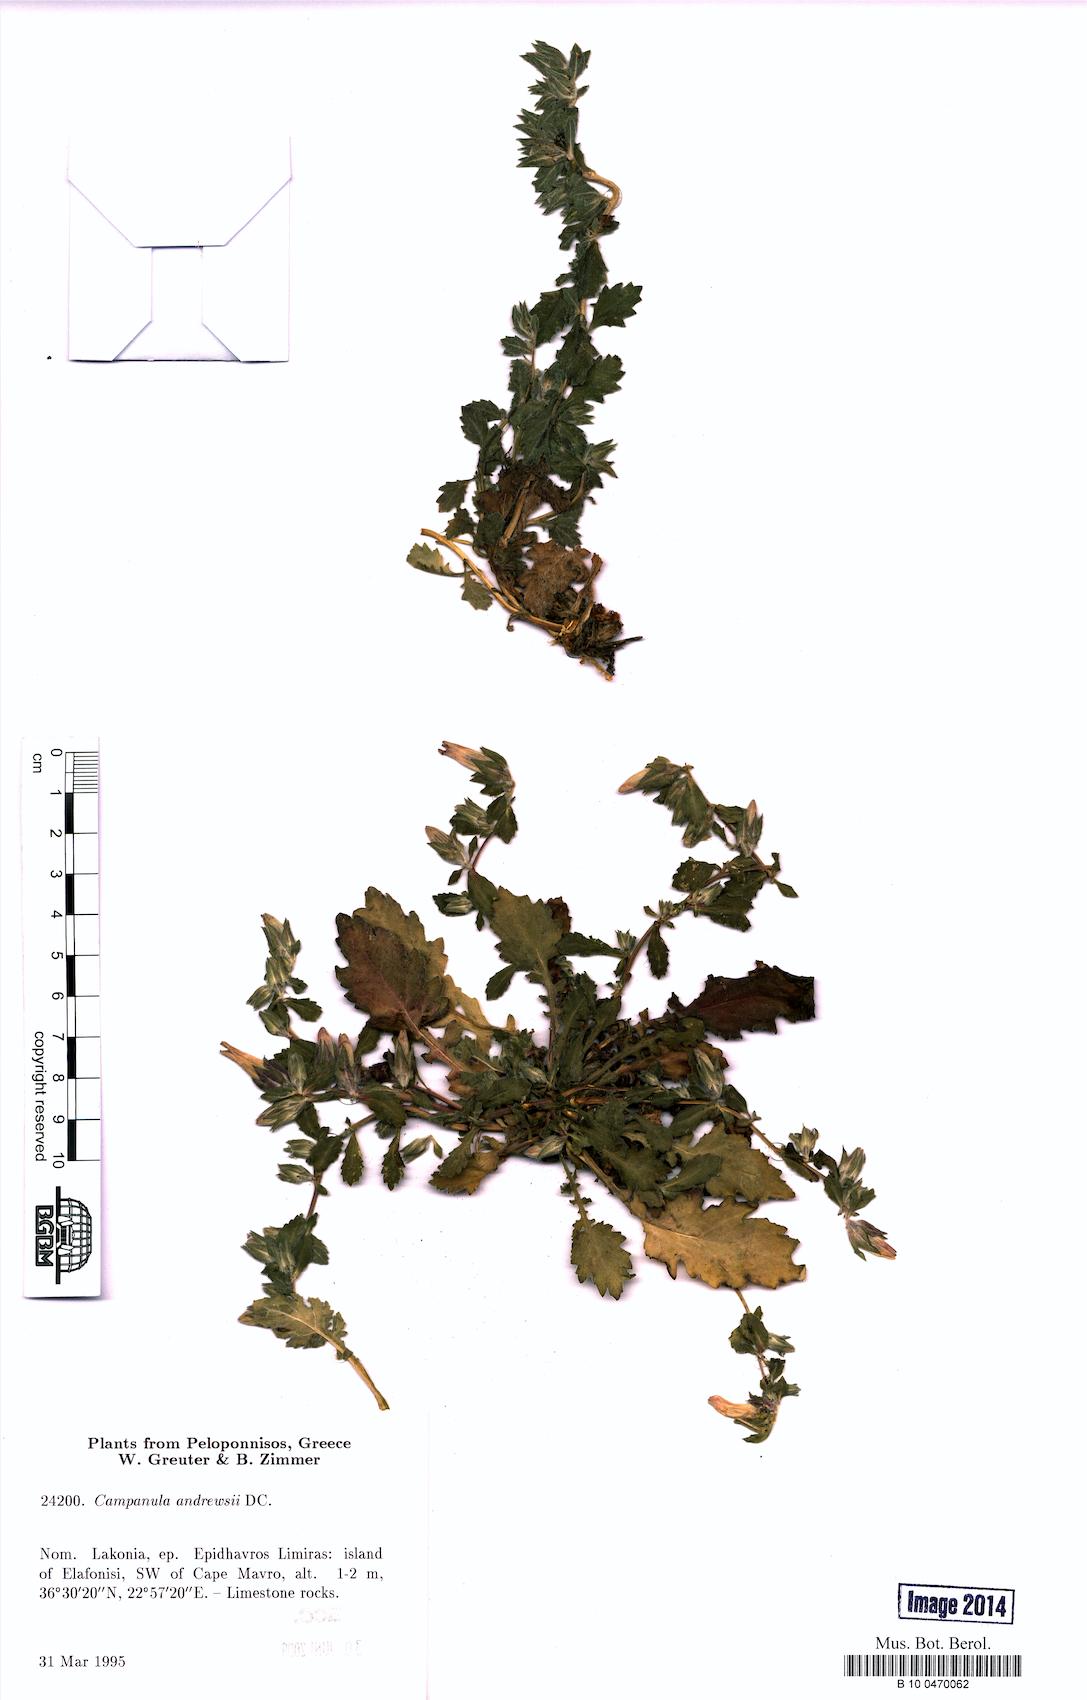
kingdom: Plantae
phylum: Tracheophyta
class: Magnoliopsida
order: Asterales
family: Campanulaceae
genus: Campanula
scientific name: Campanula andrewsii
